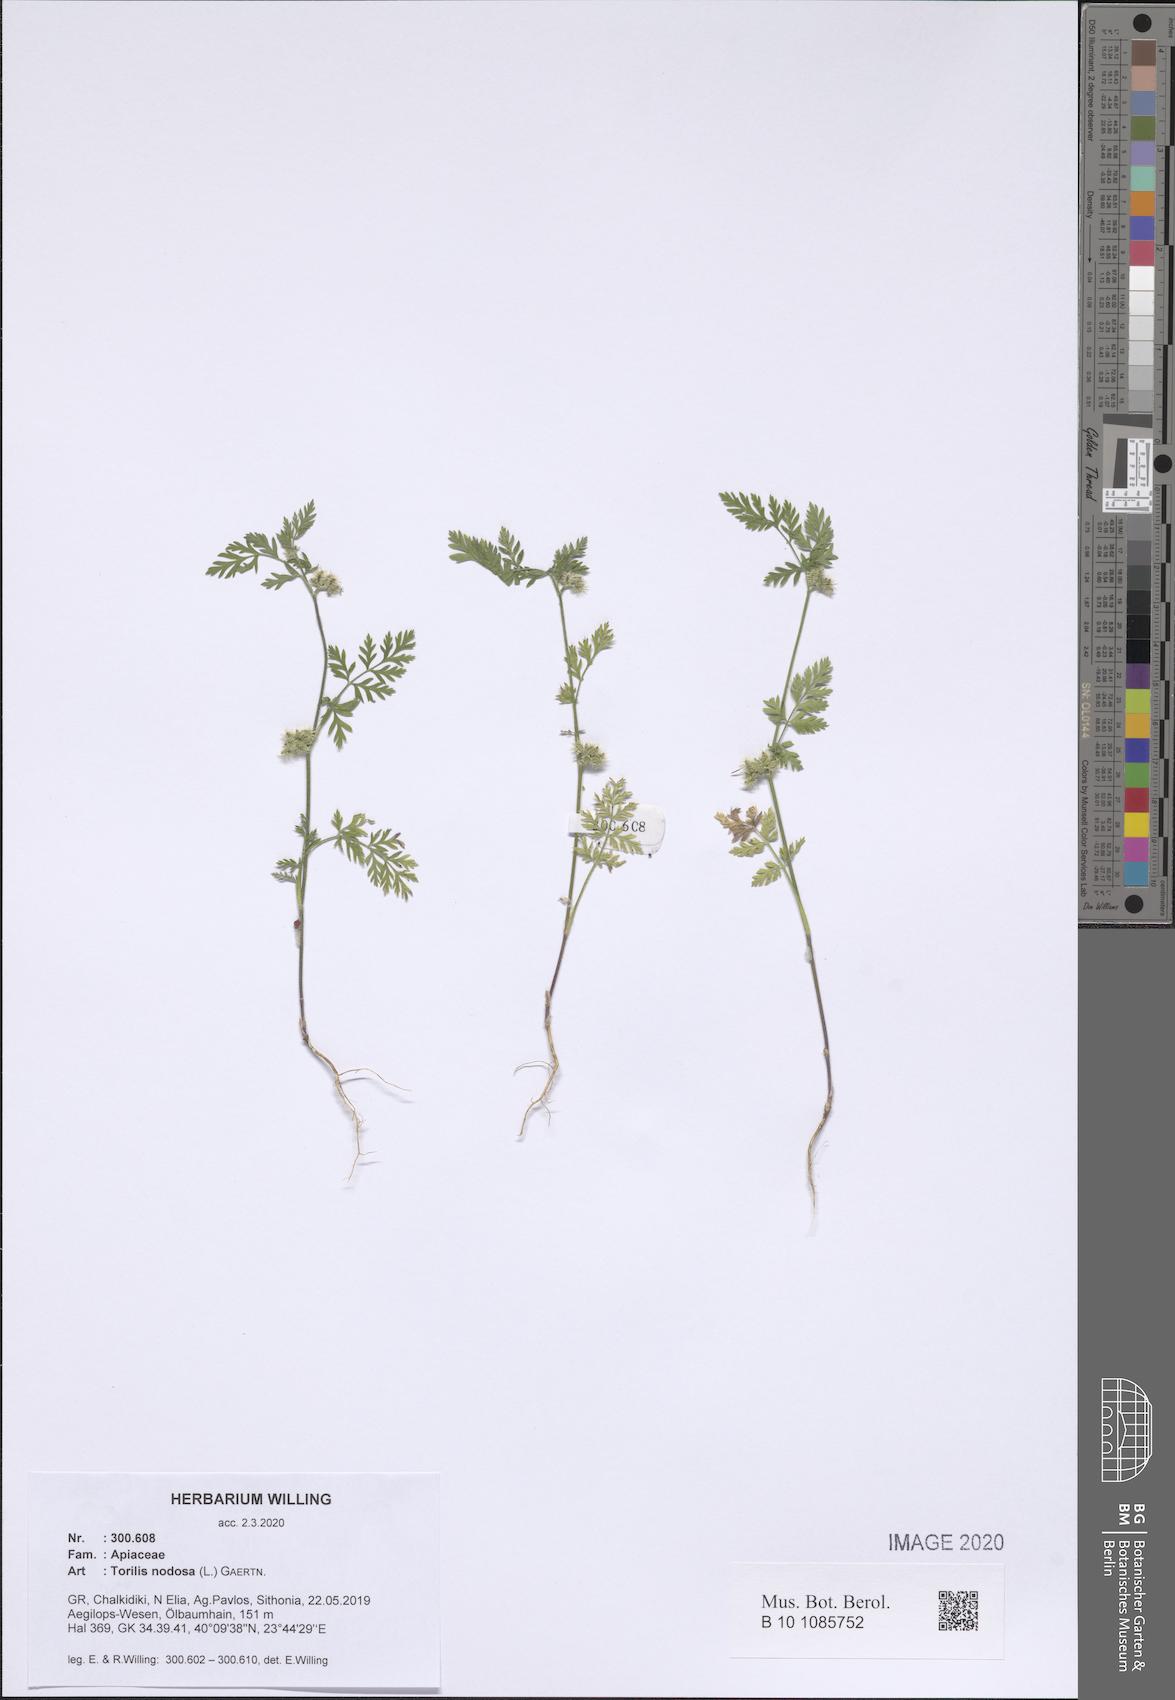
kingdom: Plantae
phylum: Tracheophyta
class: Magnoliopsida
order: Apiales
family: Apiaceae
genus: Torilis
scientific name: Torilis nodosa
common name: Knotted hedge-parsley
